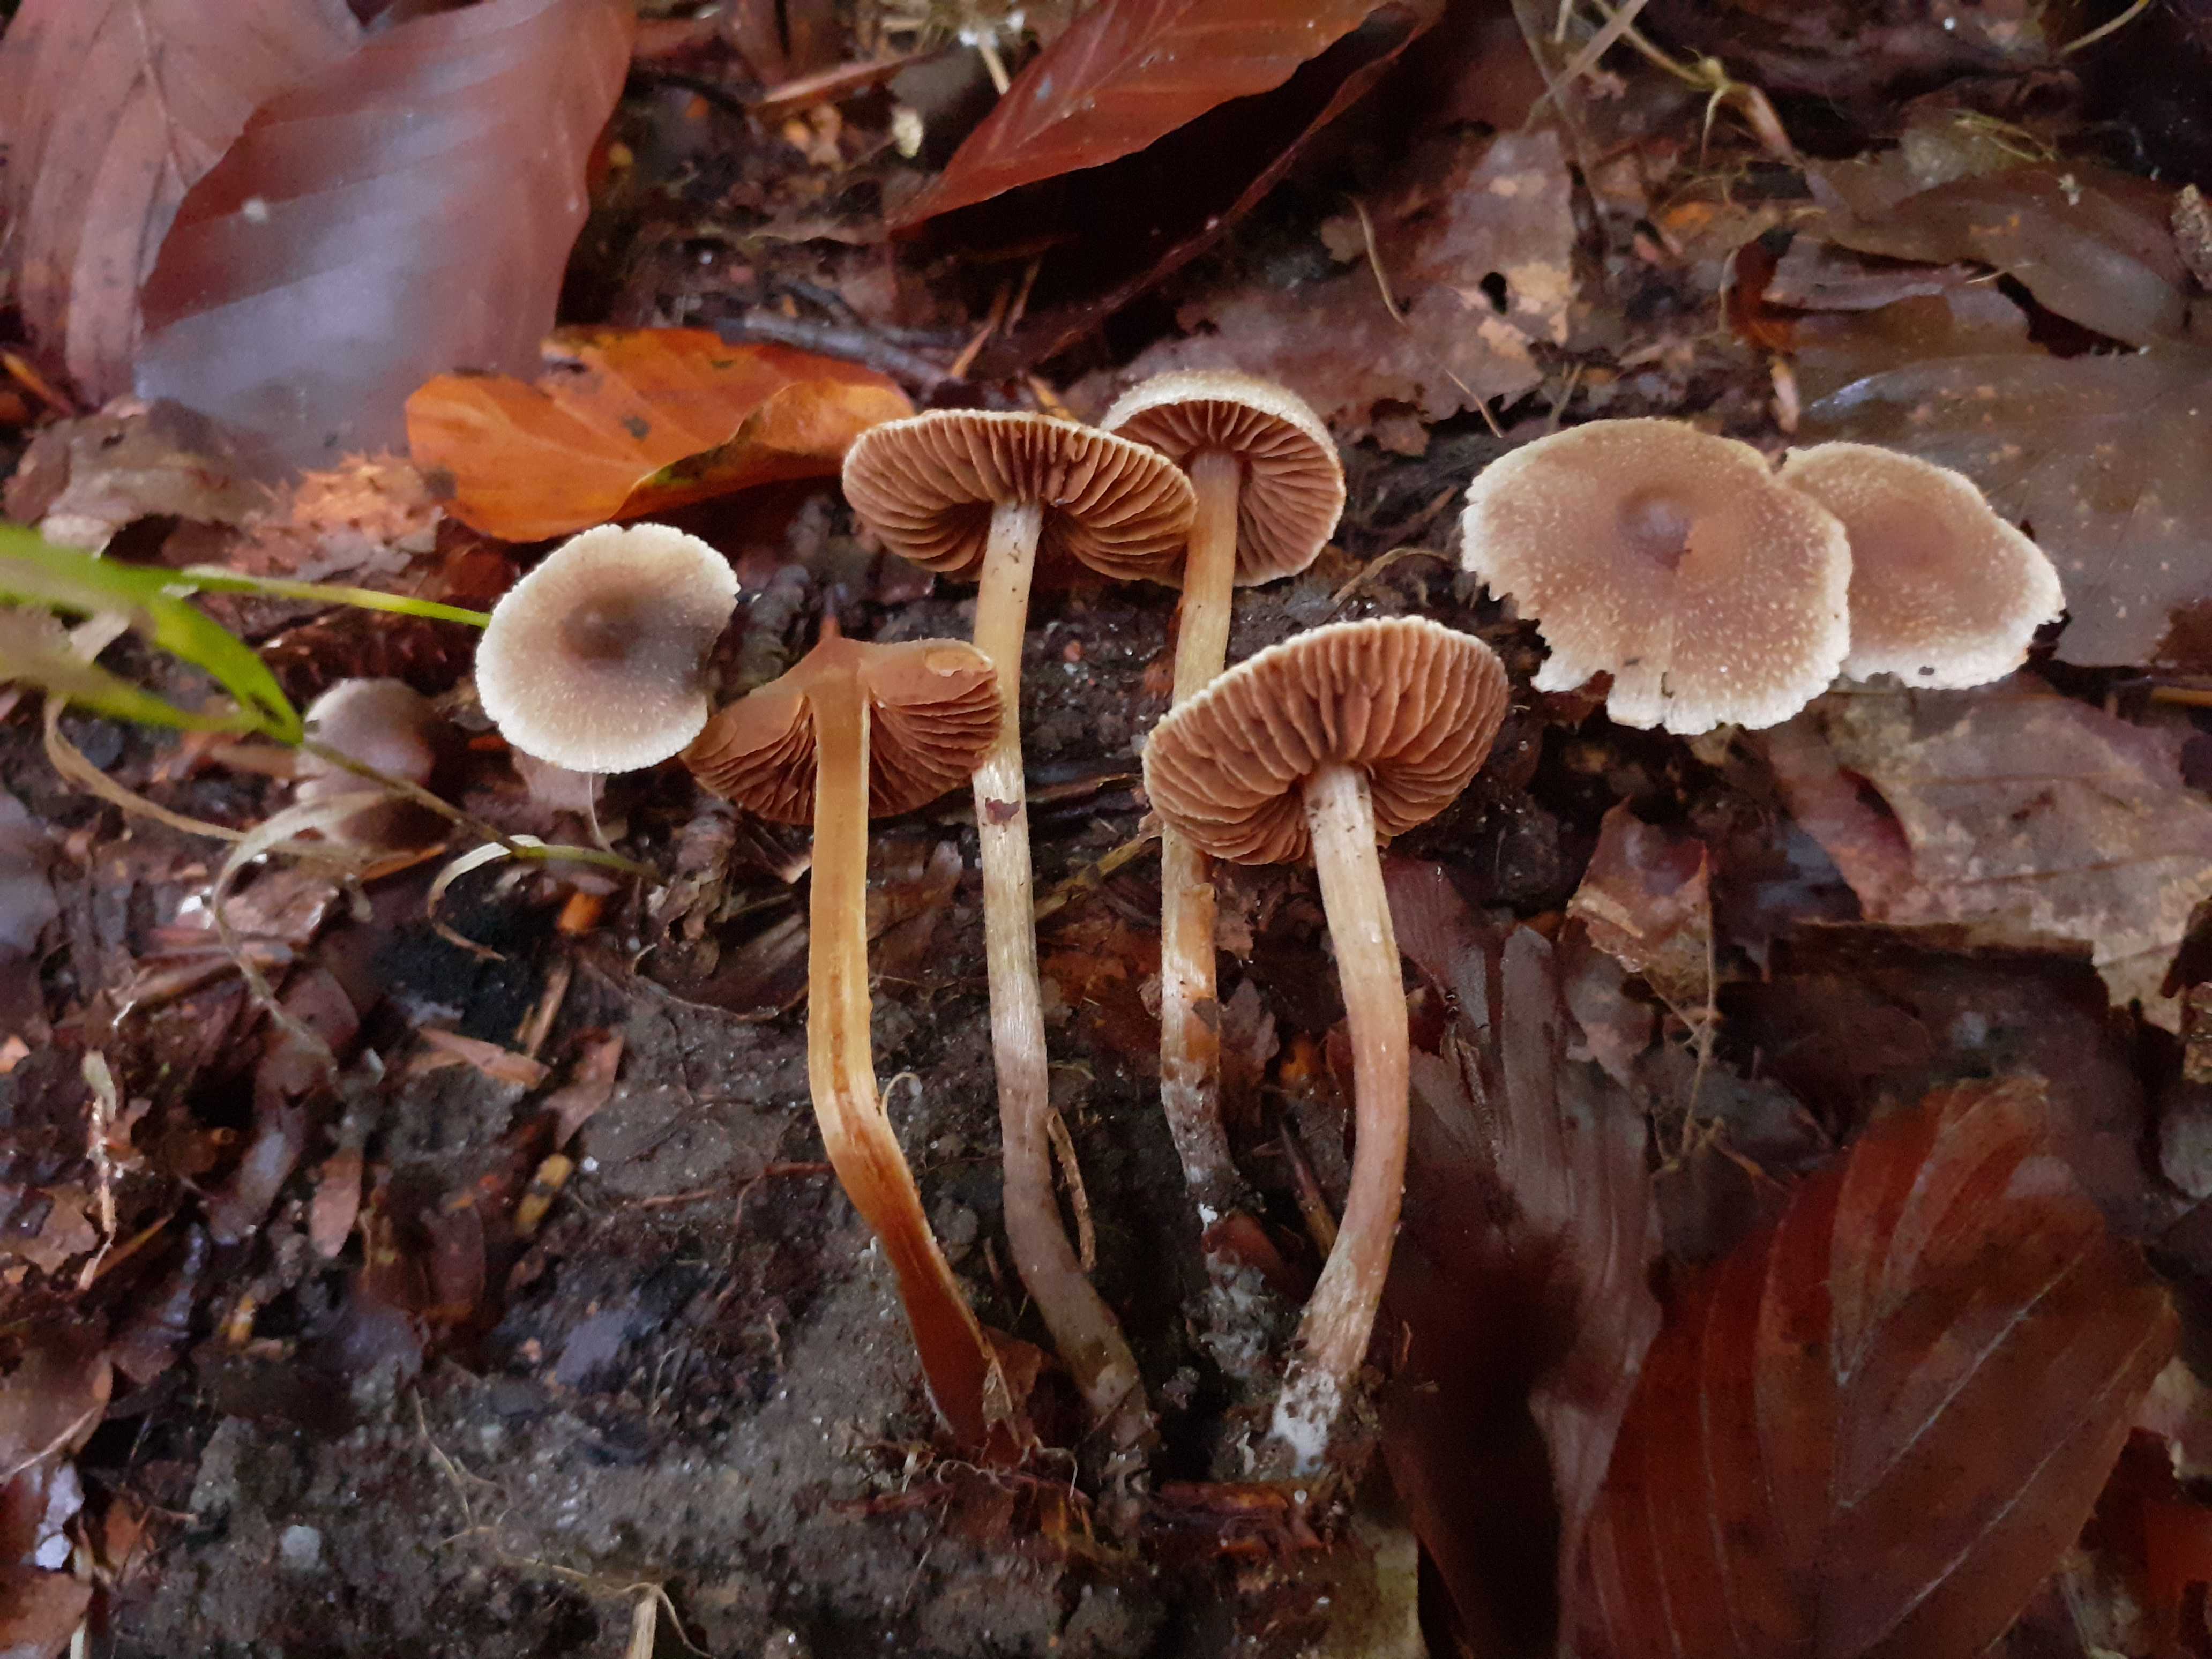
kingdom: Fungi
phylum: Basidiomycota
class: Agaricomycetes
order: Agaricales
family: Cortinariaceae
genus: Cortinarius
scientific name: Cortinarius geraniolens
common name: geranium-slørhat
